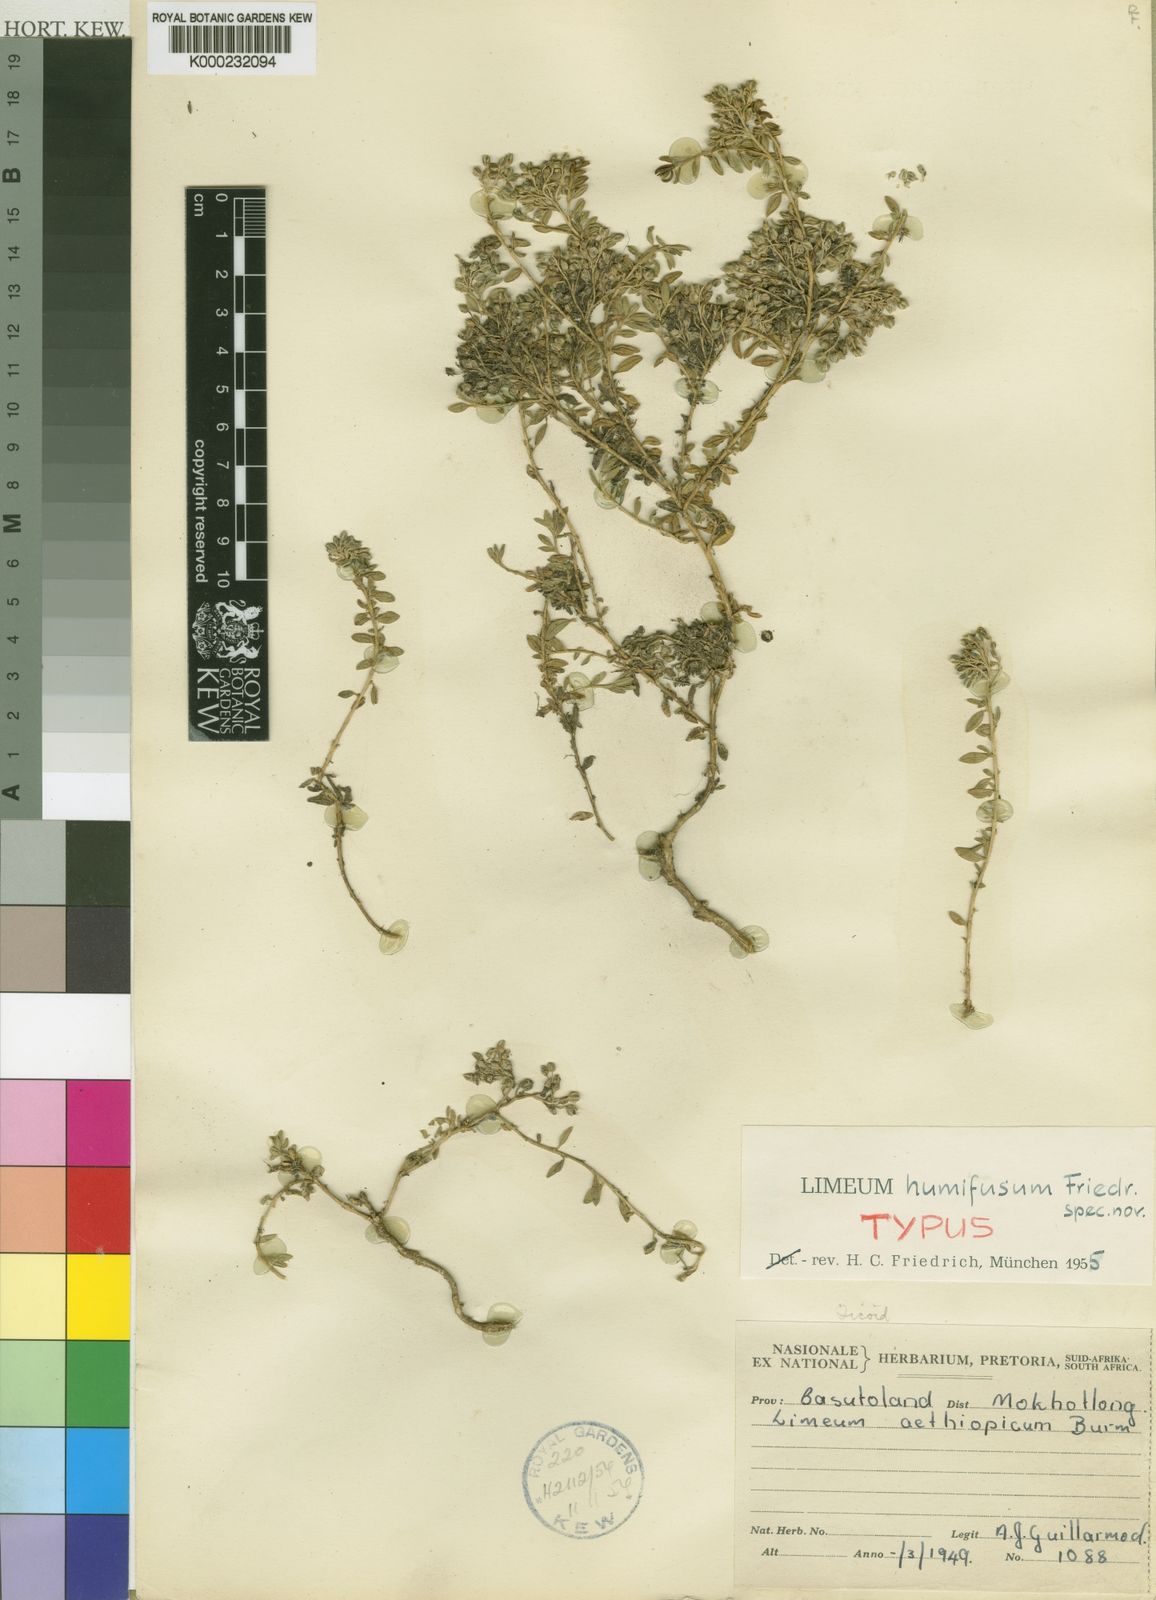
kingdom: Plantae
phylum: Tracheophyta
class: Magnoliopsida
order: Caryophyllales
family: Limeaceae
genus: Limeum
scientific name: Limeum humifusum
